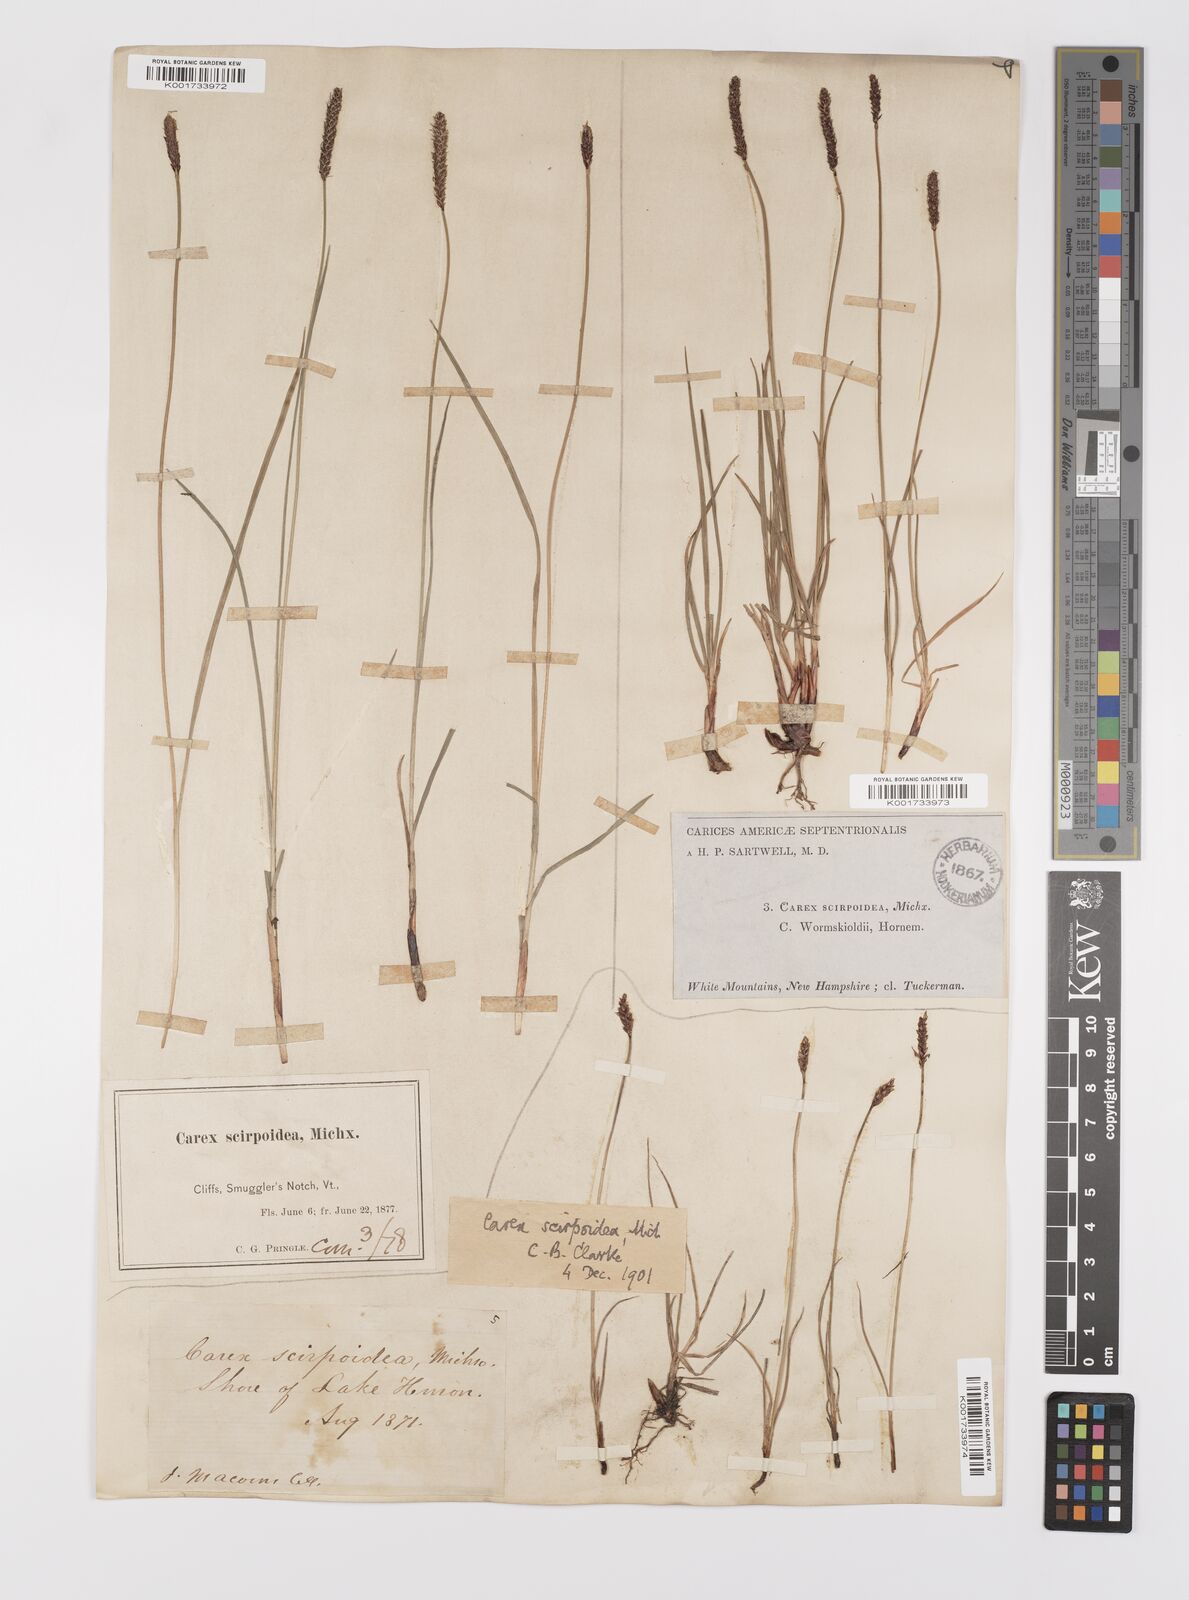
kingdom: Plantae
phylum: Tracheophyta
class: Liliopsida
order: Poales
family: Cyperaceae
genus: Carex
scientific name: Carex scirpoidea
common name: Canada single-spike sedge
